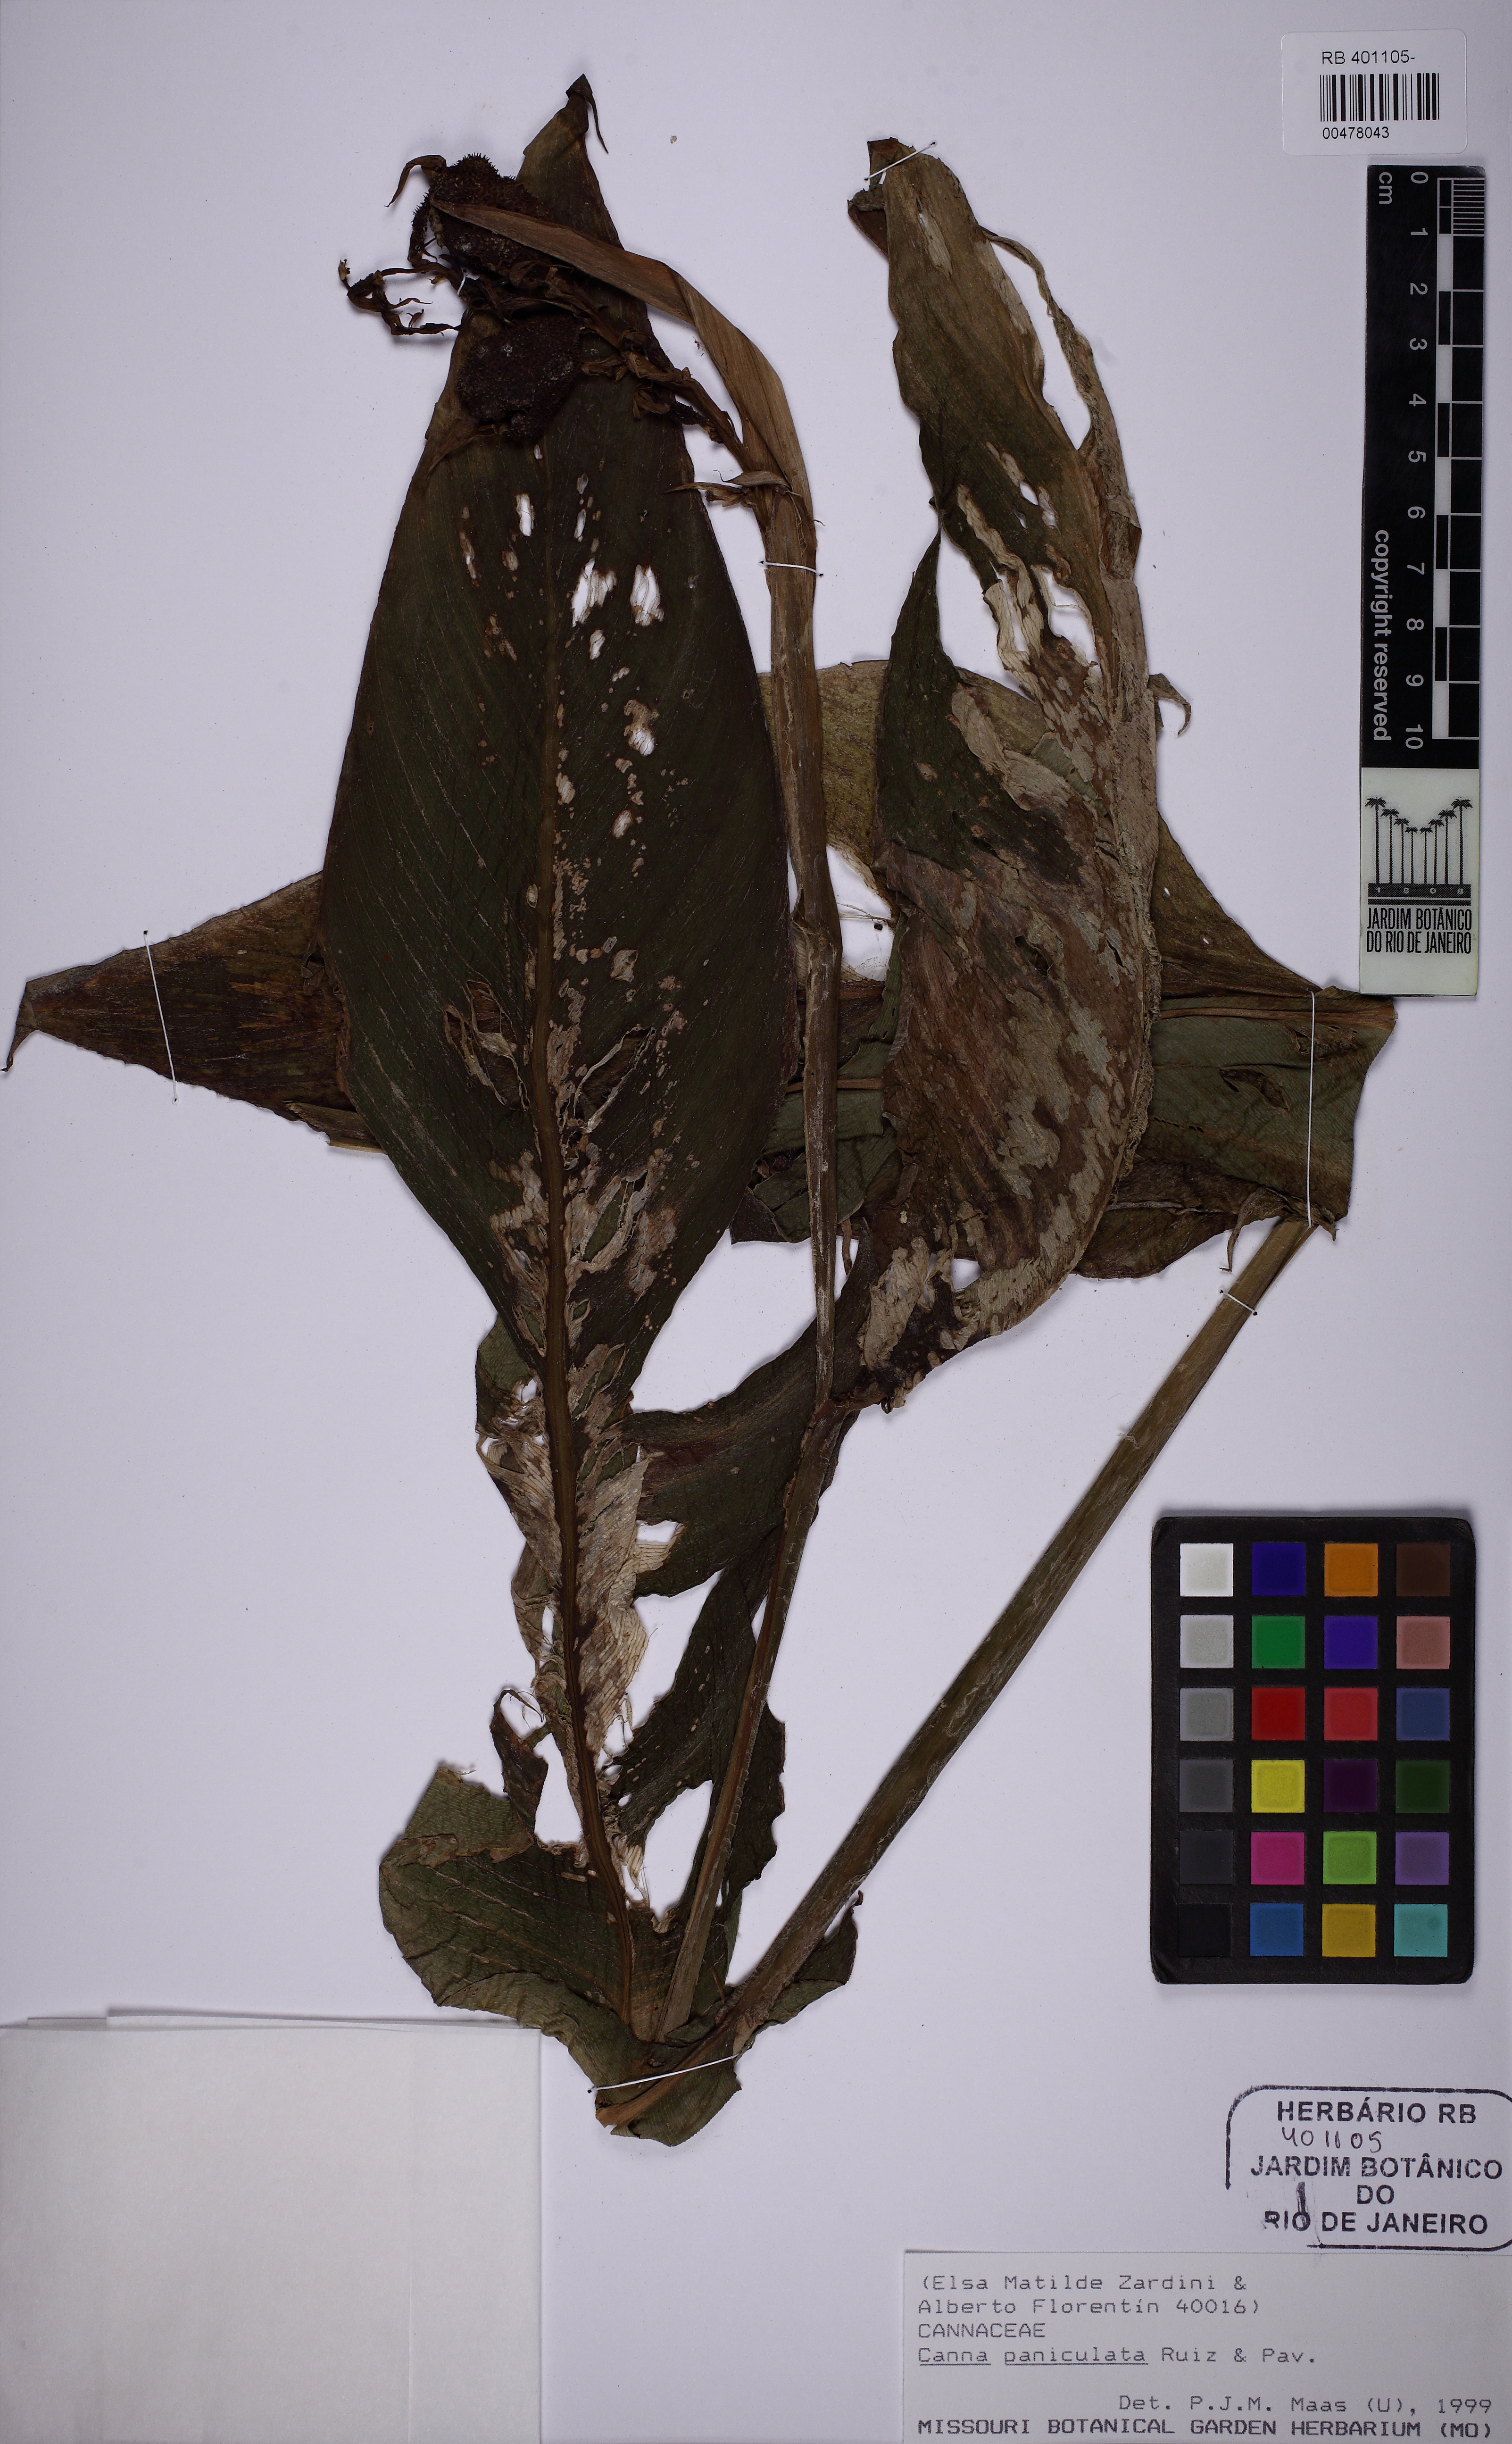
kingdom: Plantae
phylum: Tracheophyta
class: Liliopsida
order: Zingiberales
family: Cannaceae
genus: Canna
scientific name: Canna paniculata
